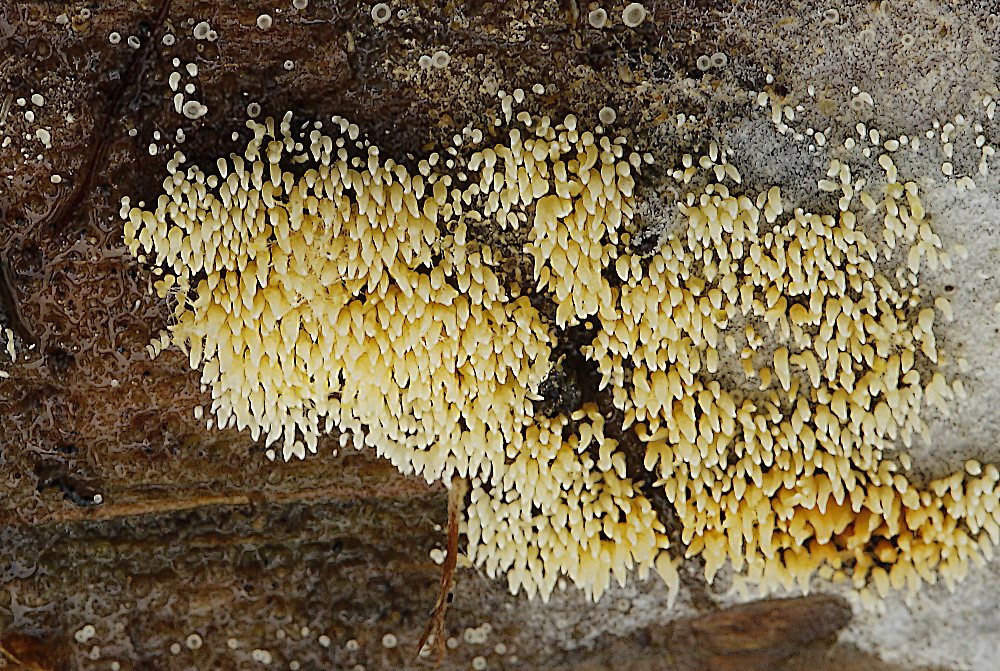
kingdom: Fungi
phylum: Basidiomycota
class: Agaricomycetes
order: Agaricales
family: Clavariaceae
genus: Mucronella
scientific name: Mucronella flava
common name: gul hængepig
